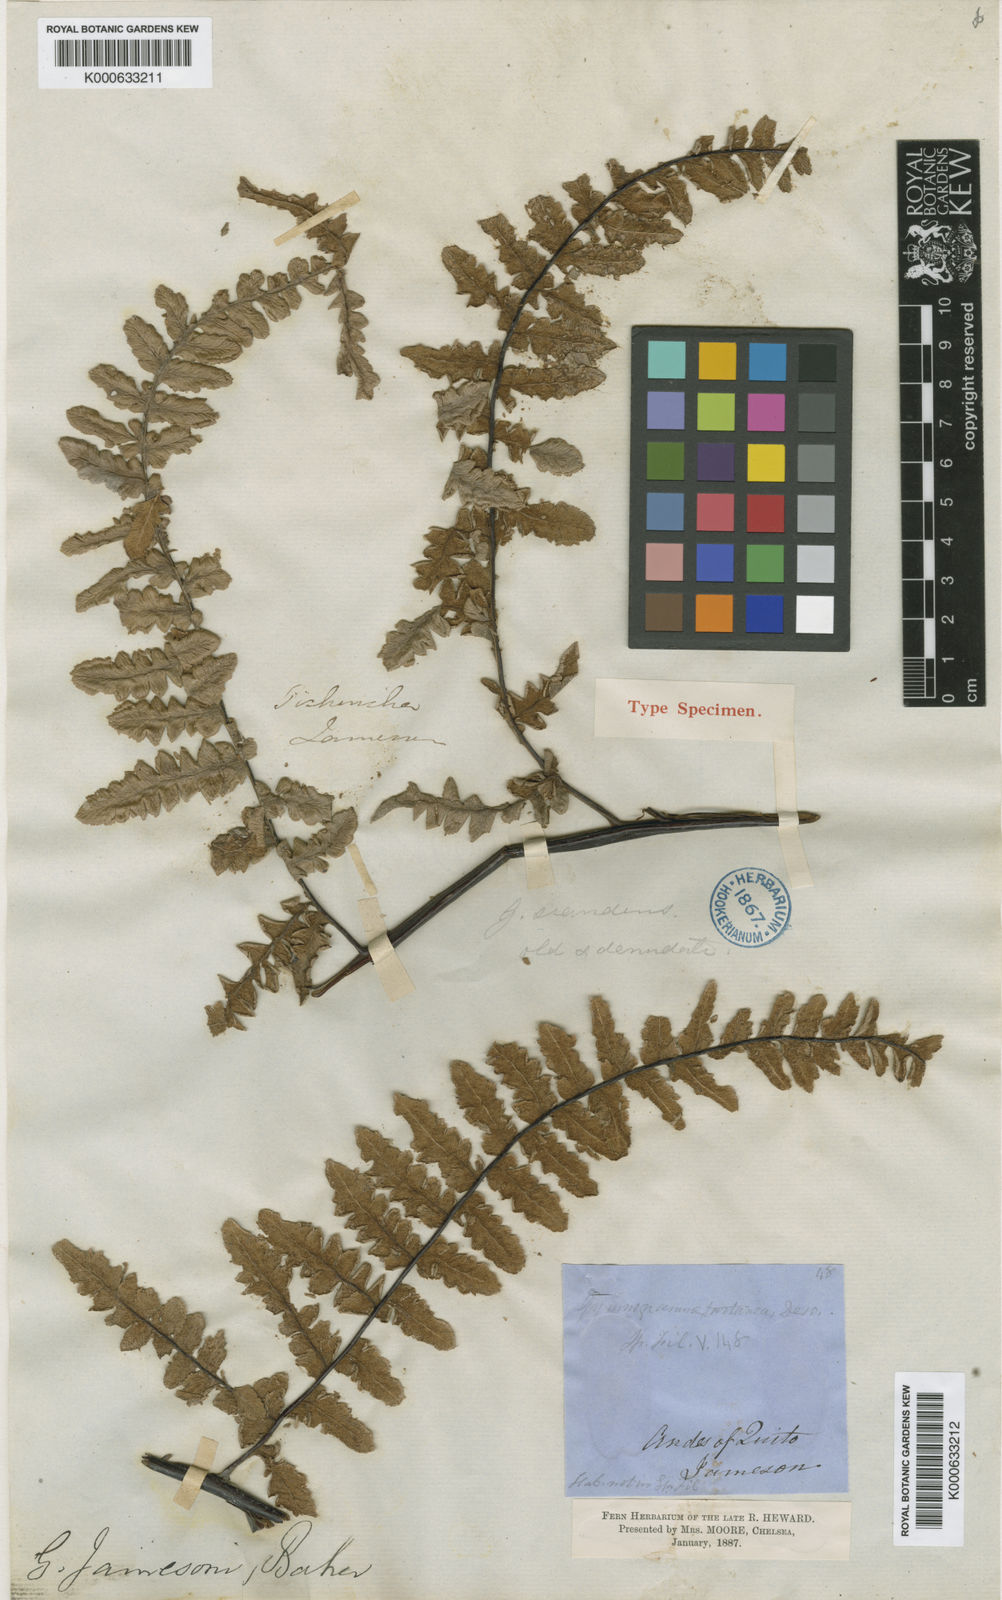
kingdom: Plantae
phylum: Tracheophyta
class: Polypodiopsida
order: Polypodiales
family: Pteridaceae
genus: Pityrogramma
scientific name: Pityrogramma jamesonii
